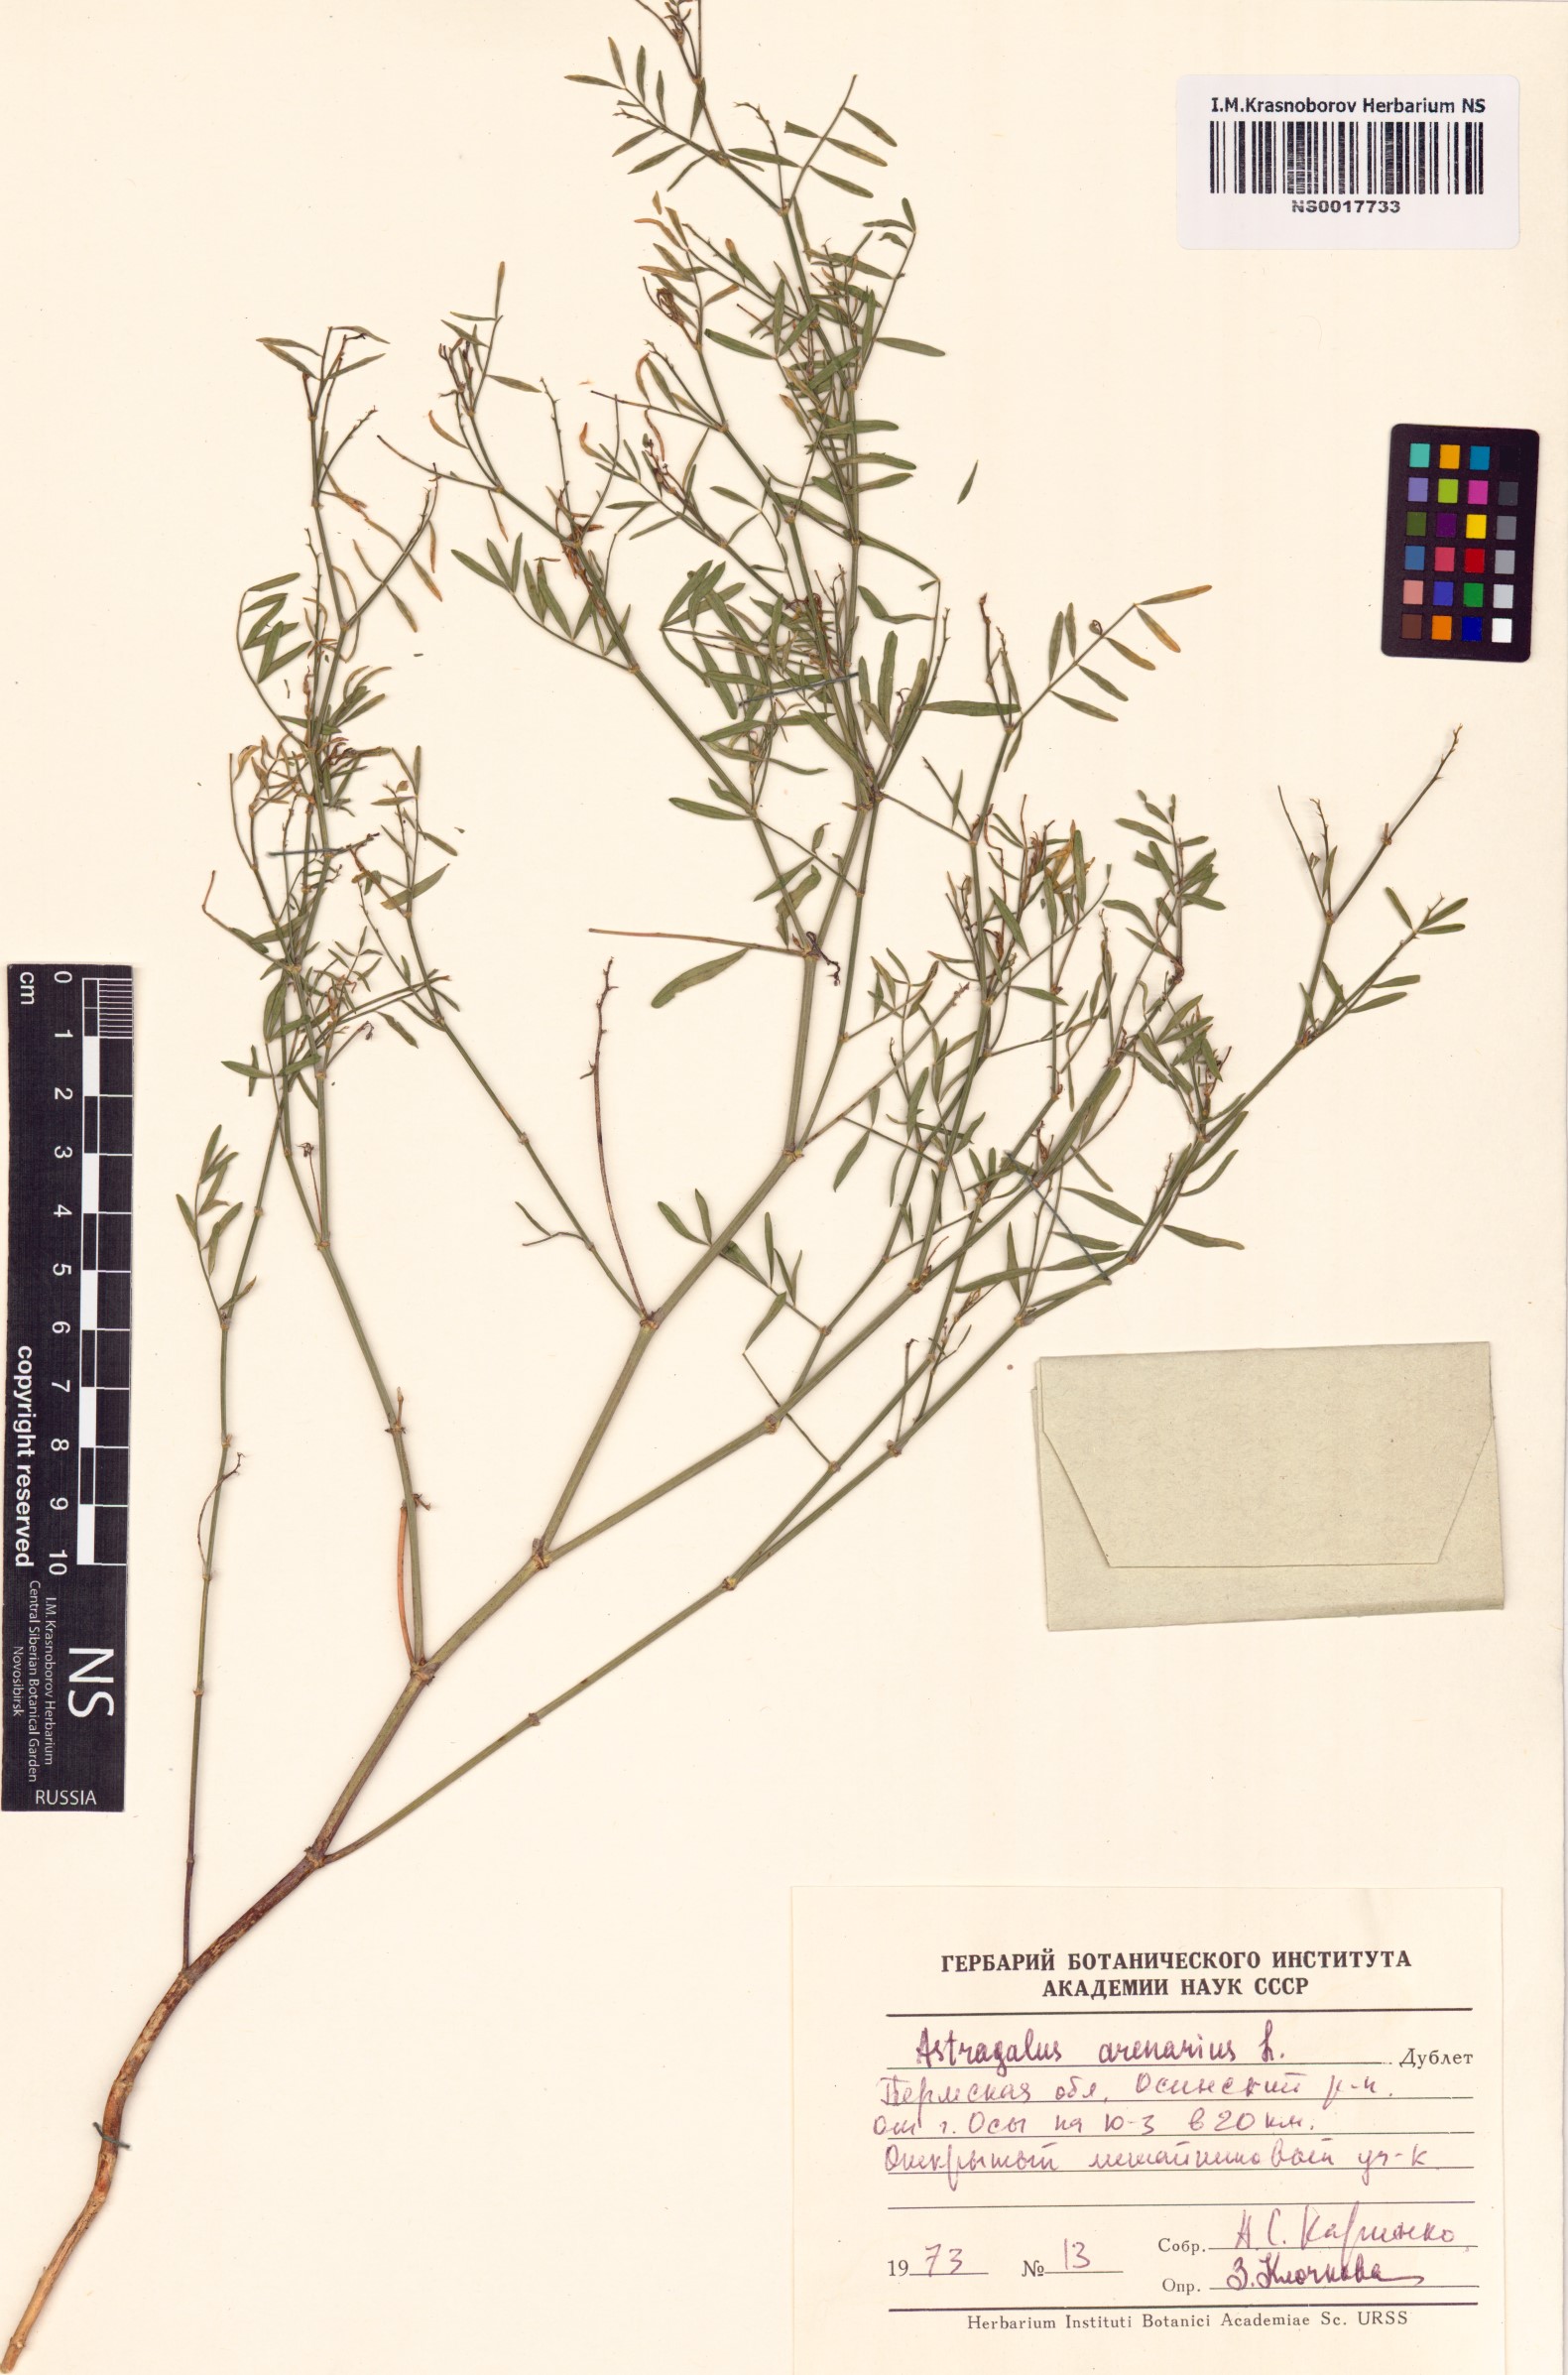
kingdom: Plantae
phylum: Tracheophyta
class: Magnoliopsida
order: Fabales
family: Fabaceae
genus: Astragalus
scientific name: Astragalus arenarius
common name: Arenarious milk-vetch
